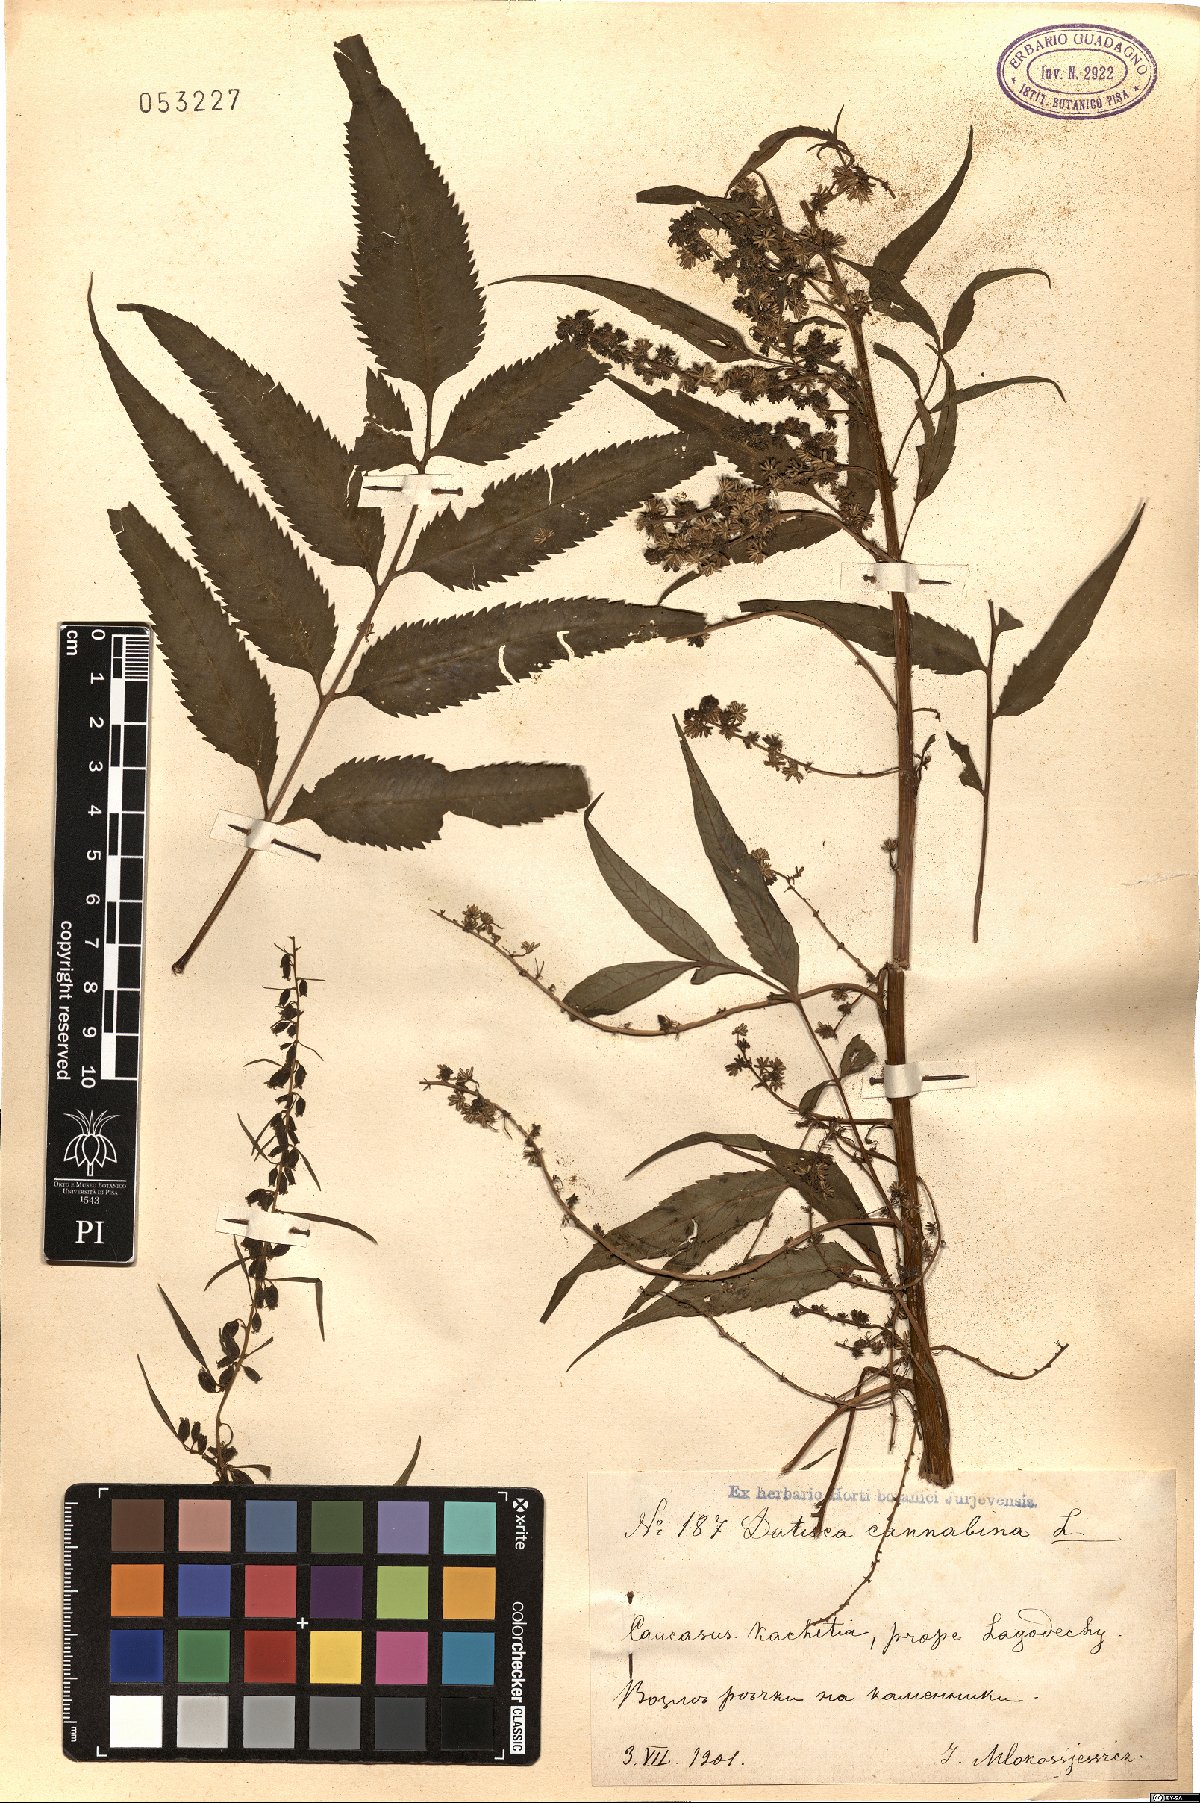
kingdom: Plantae
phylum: Tracheophyta
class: Magnoliopsida
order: Cucurbitales
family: Datiscaceae
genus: Datisca
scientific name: Datisca cannabina
